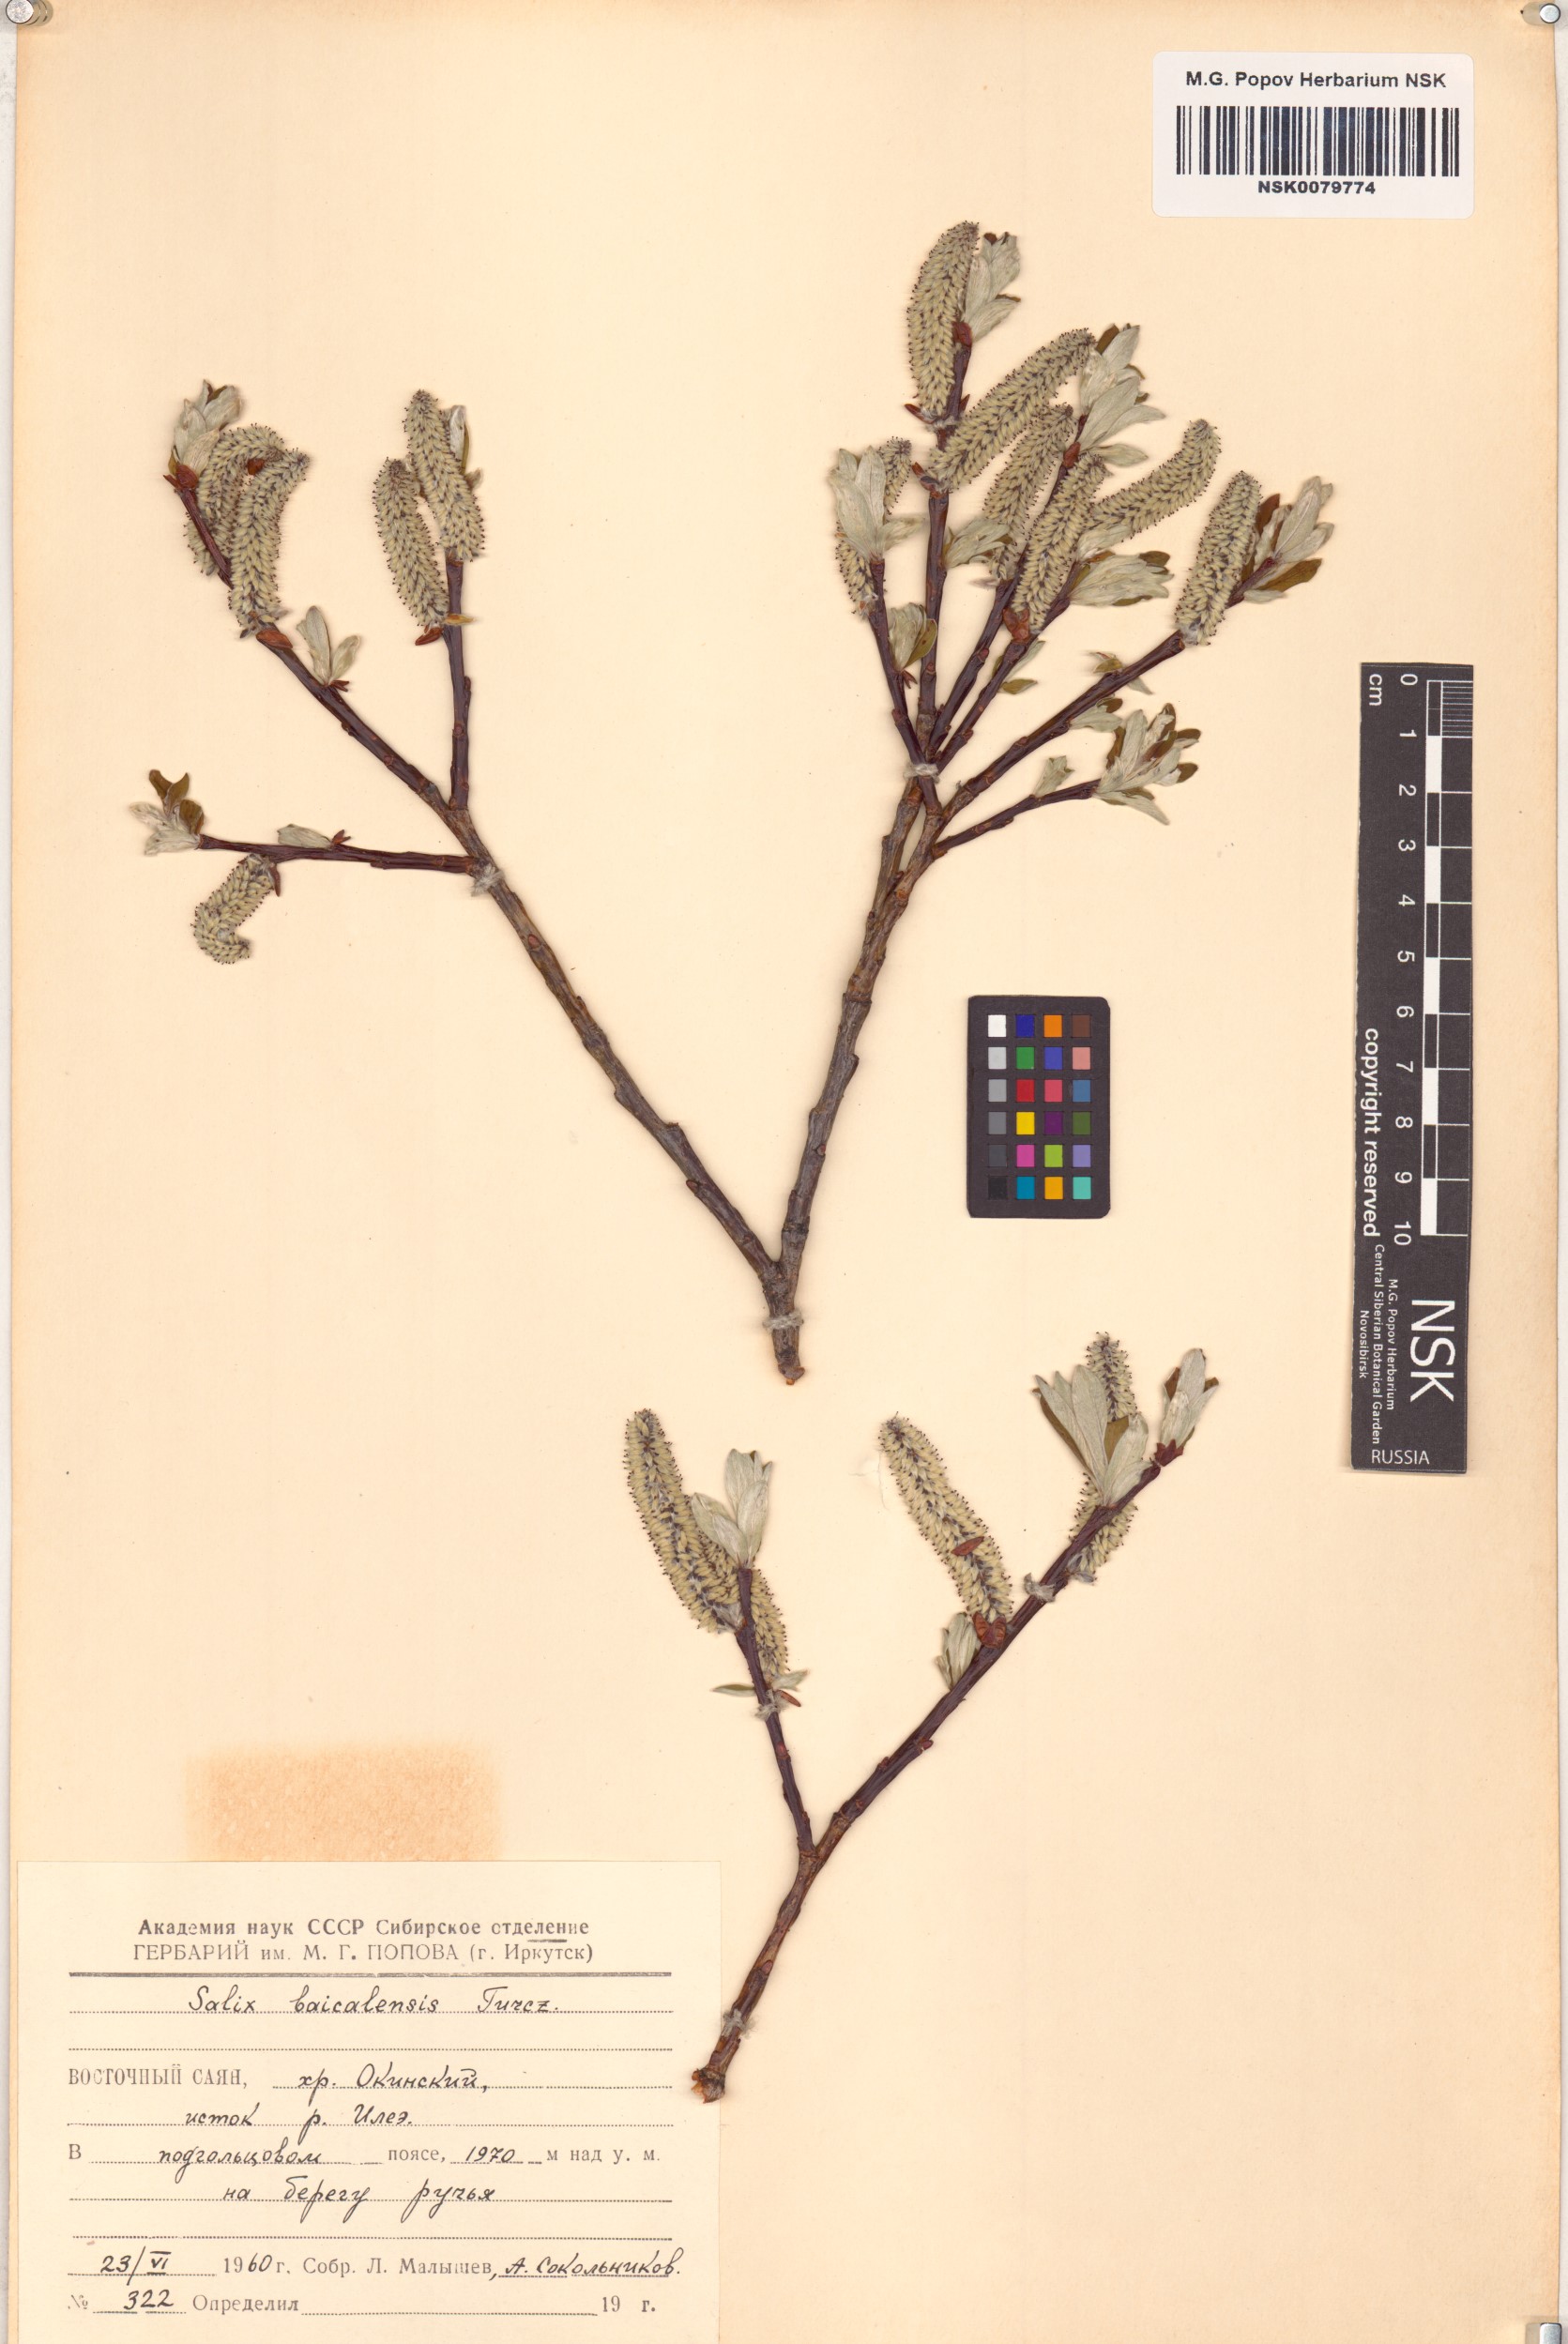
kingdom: Plantae
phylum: Tracheophyta
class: Magnoliopsida
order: Malpighiales
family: Salicaceae
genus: Salix
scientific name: Salix krylovii
